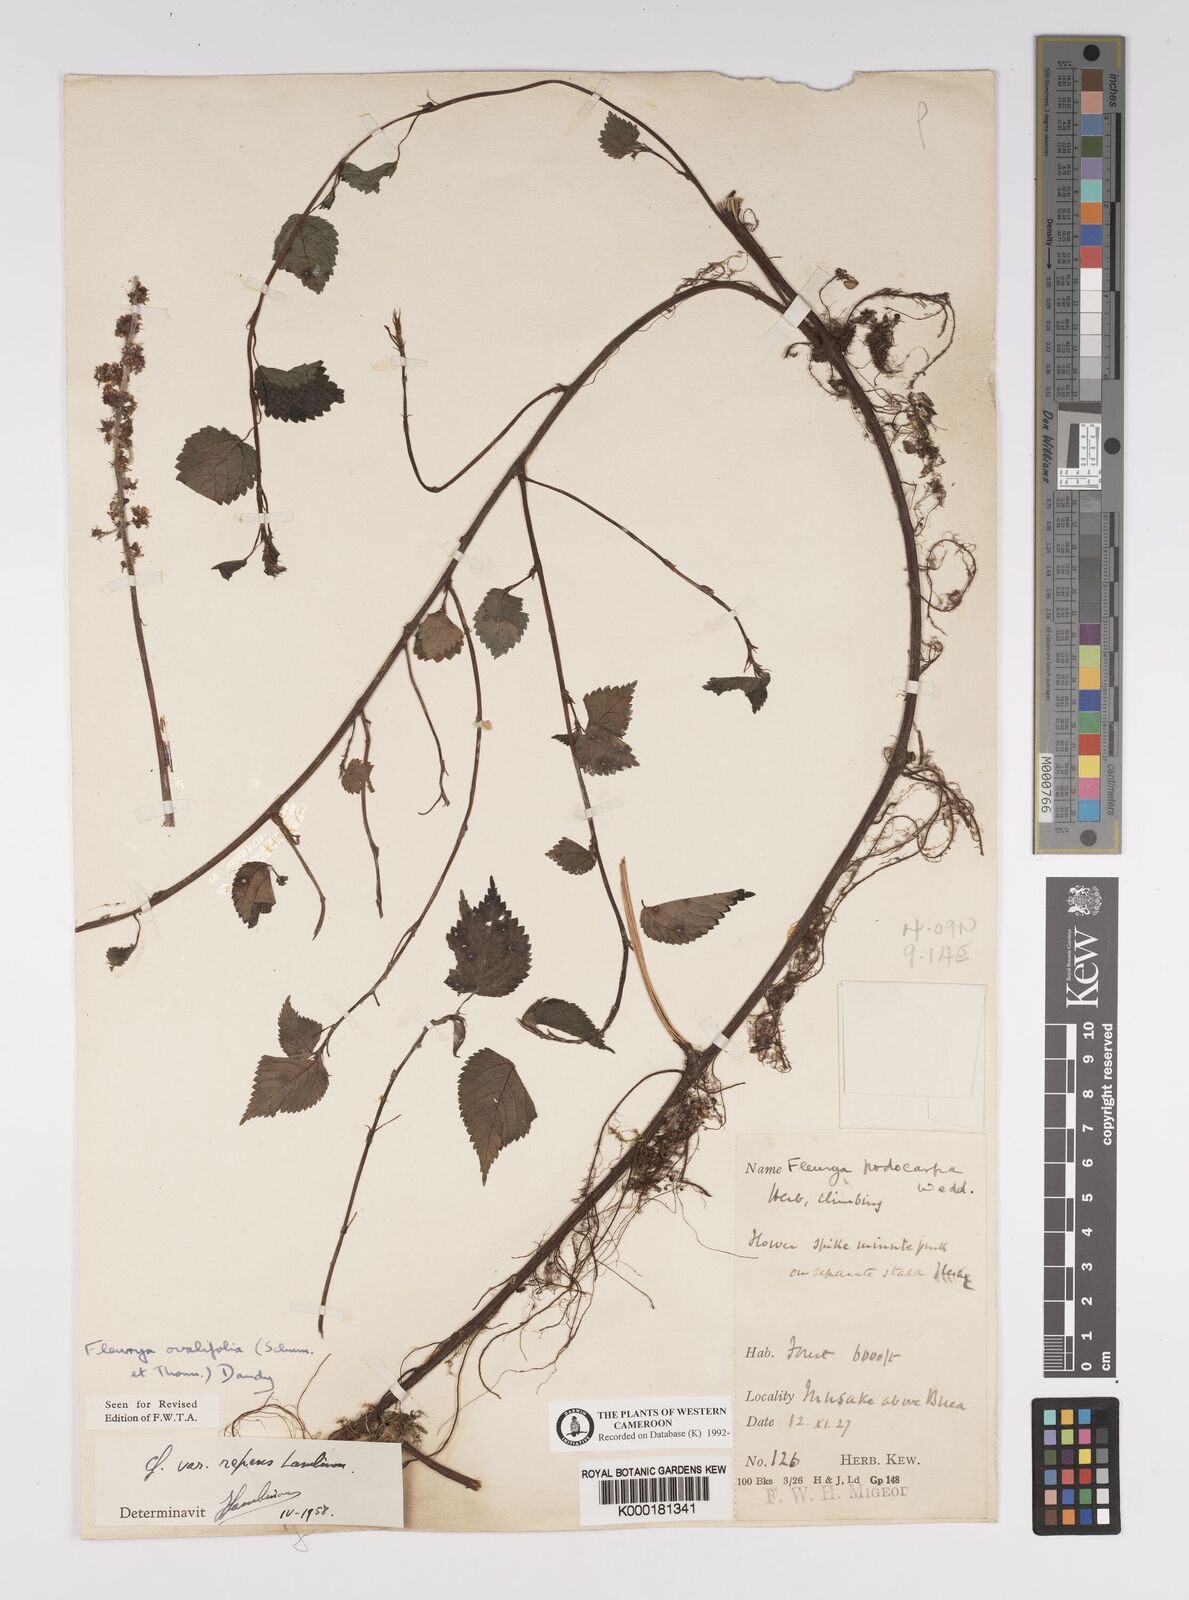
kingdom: Plantae
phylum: Tracheophyta
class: Magnoliopsida
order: Rosales
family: Urticaceae
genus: Laportea
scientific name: Laportea ovalifolia
